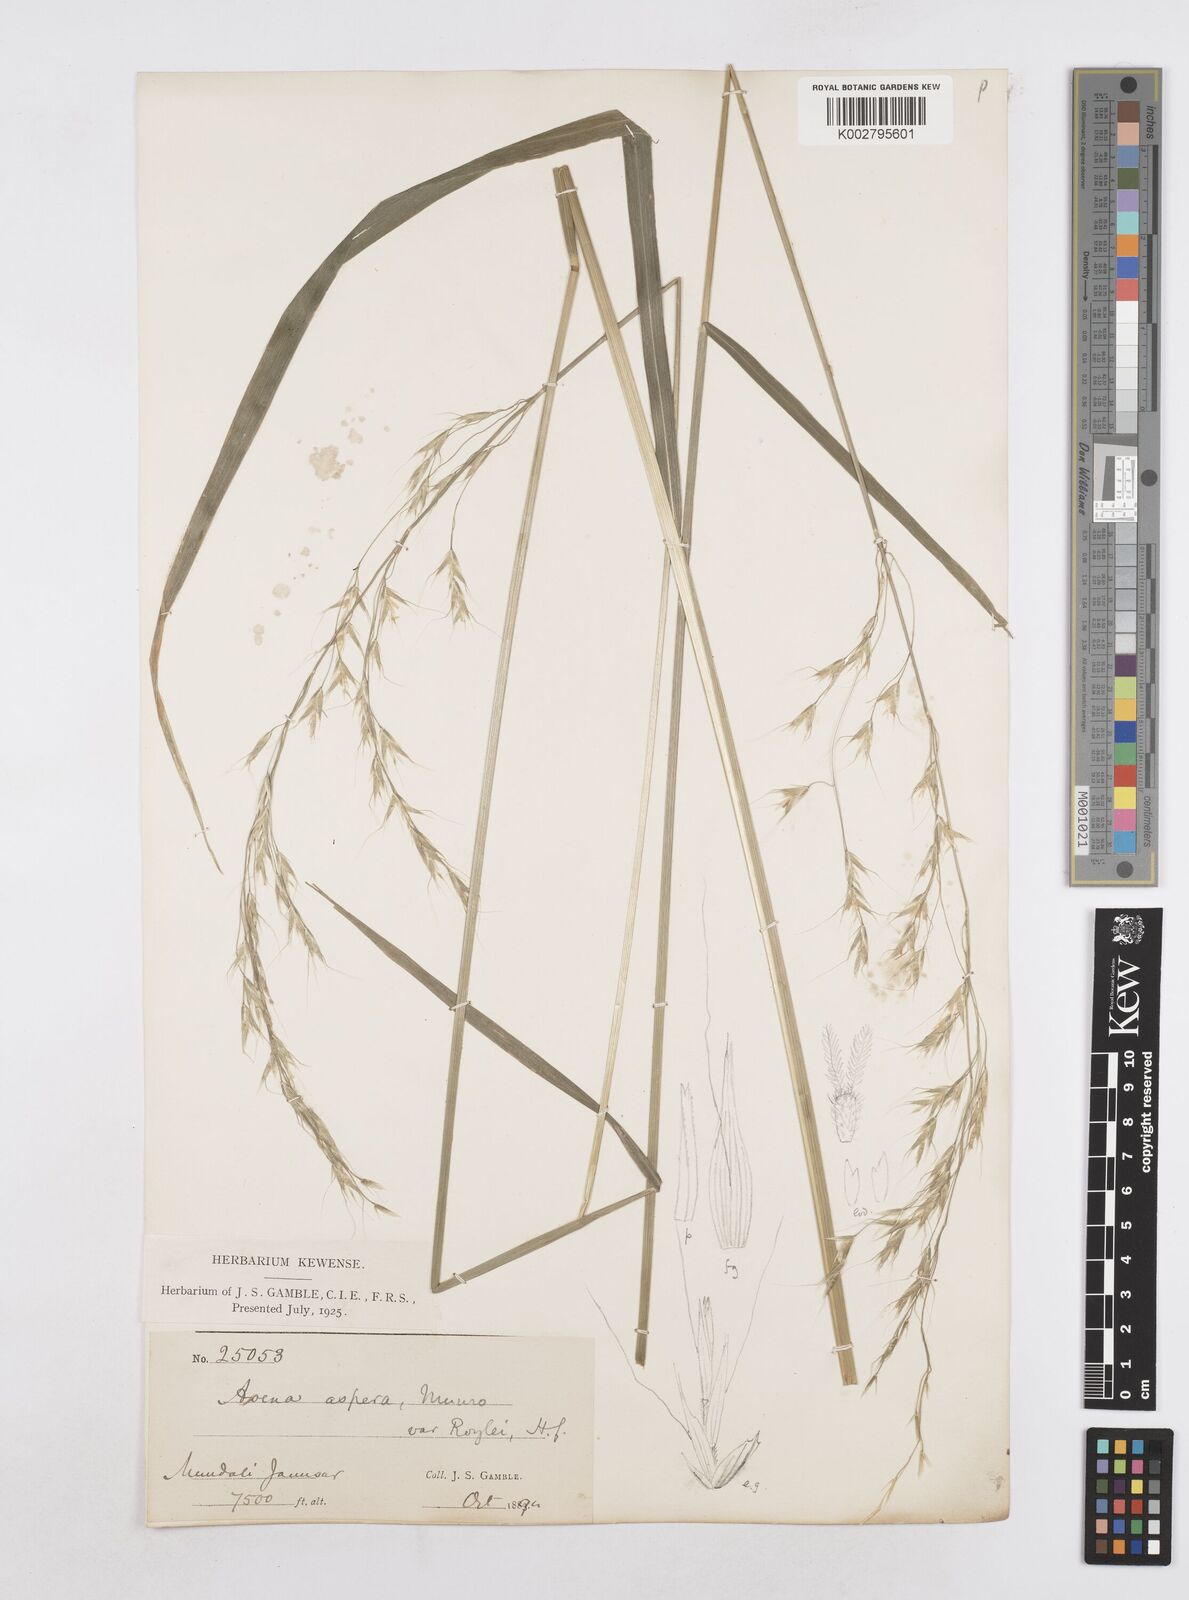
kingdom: Plantae
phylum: Tracheophyta
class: Liliopsida
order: Poales
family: Poaceae
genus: Helictotrichon
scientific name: Helictotrichon
